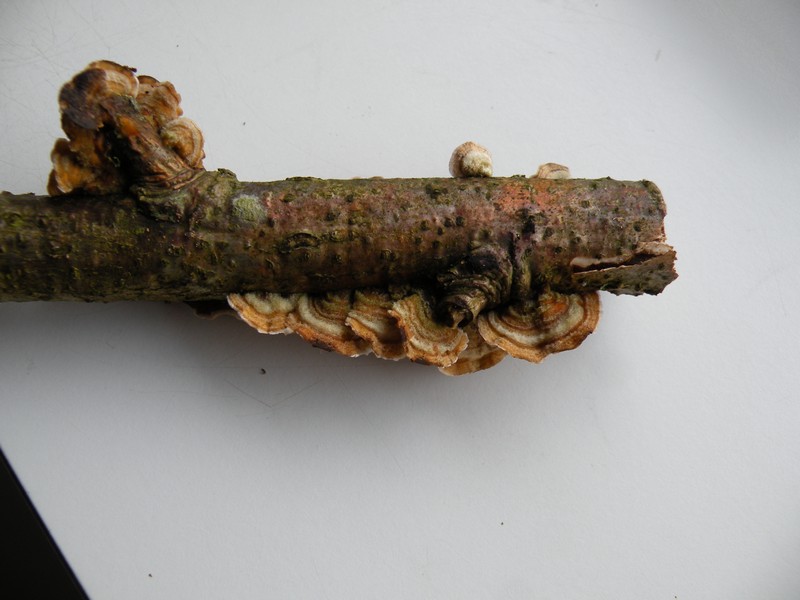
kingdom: Fungi
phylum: Basidiomycota
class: Agaricomycetes
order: Russulales
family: Stereaceae
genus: Stereum
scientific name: Stereum hirsutum
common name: håret lædersvamp
